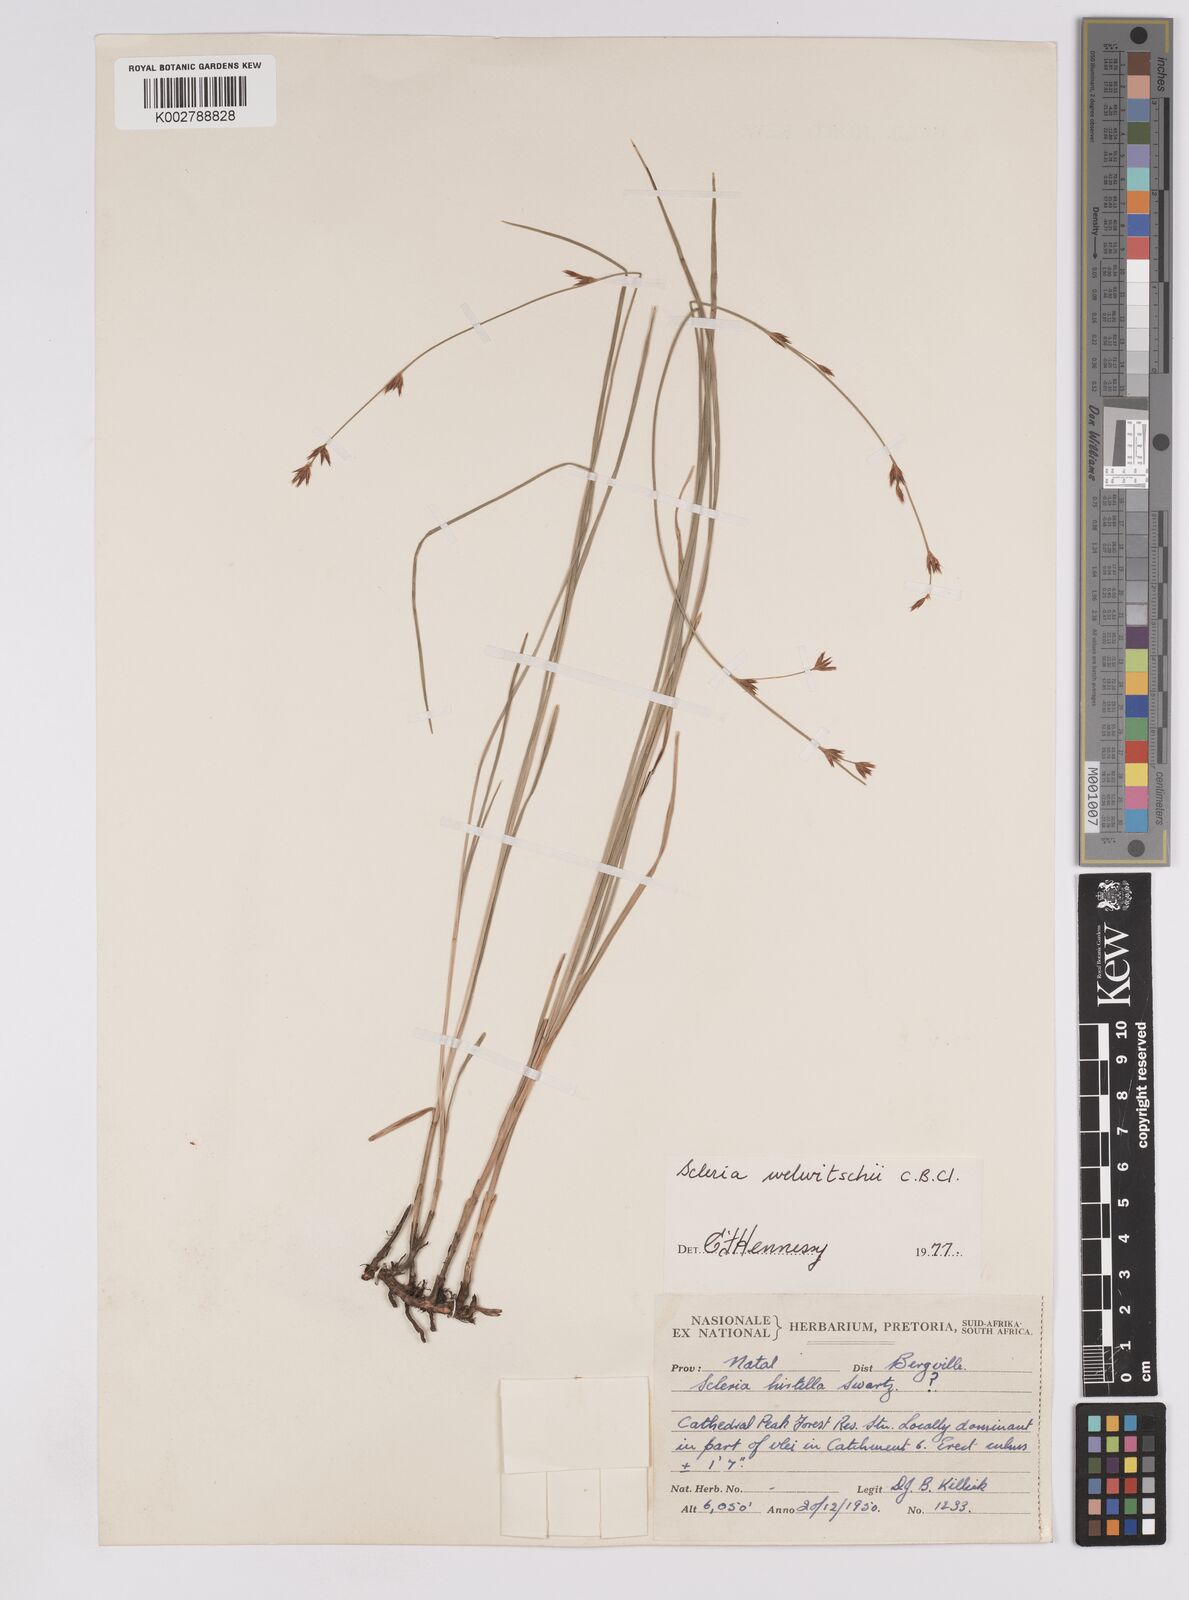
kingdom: Plantae
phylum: Tracheophyta
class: Liliopsida
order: Poales
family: Cyperaceae
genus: Scleria
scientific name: Scleria welwitschii
